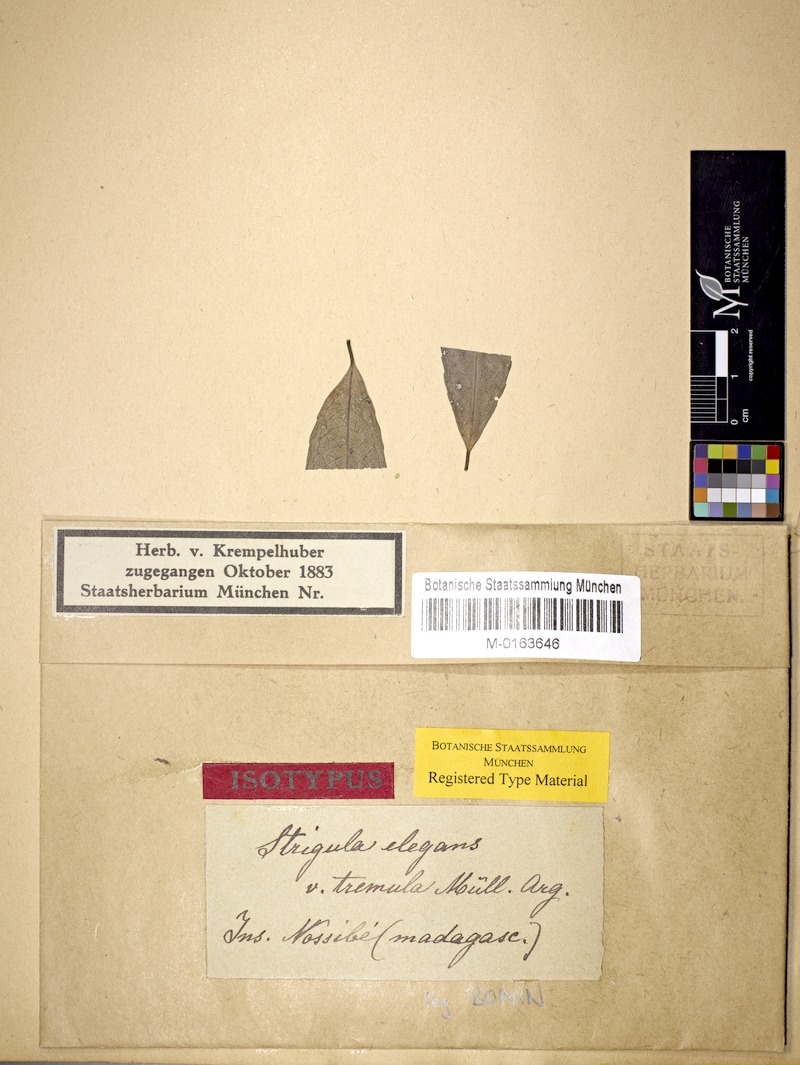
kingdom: Fungi
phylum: Ascomycota
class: Dothideomycetes
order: Strigulales
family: Strigulaceae
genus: Strigula
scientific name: Strigula smaragdula
